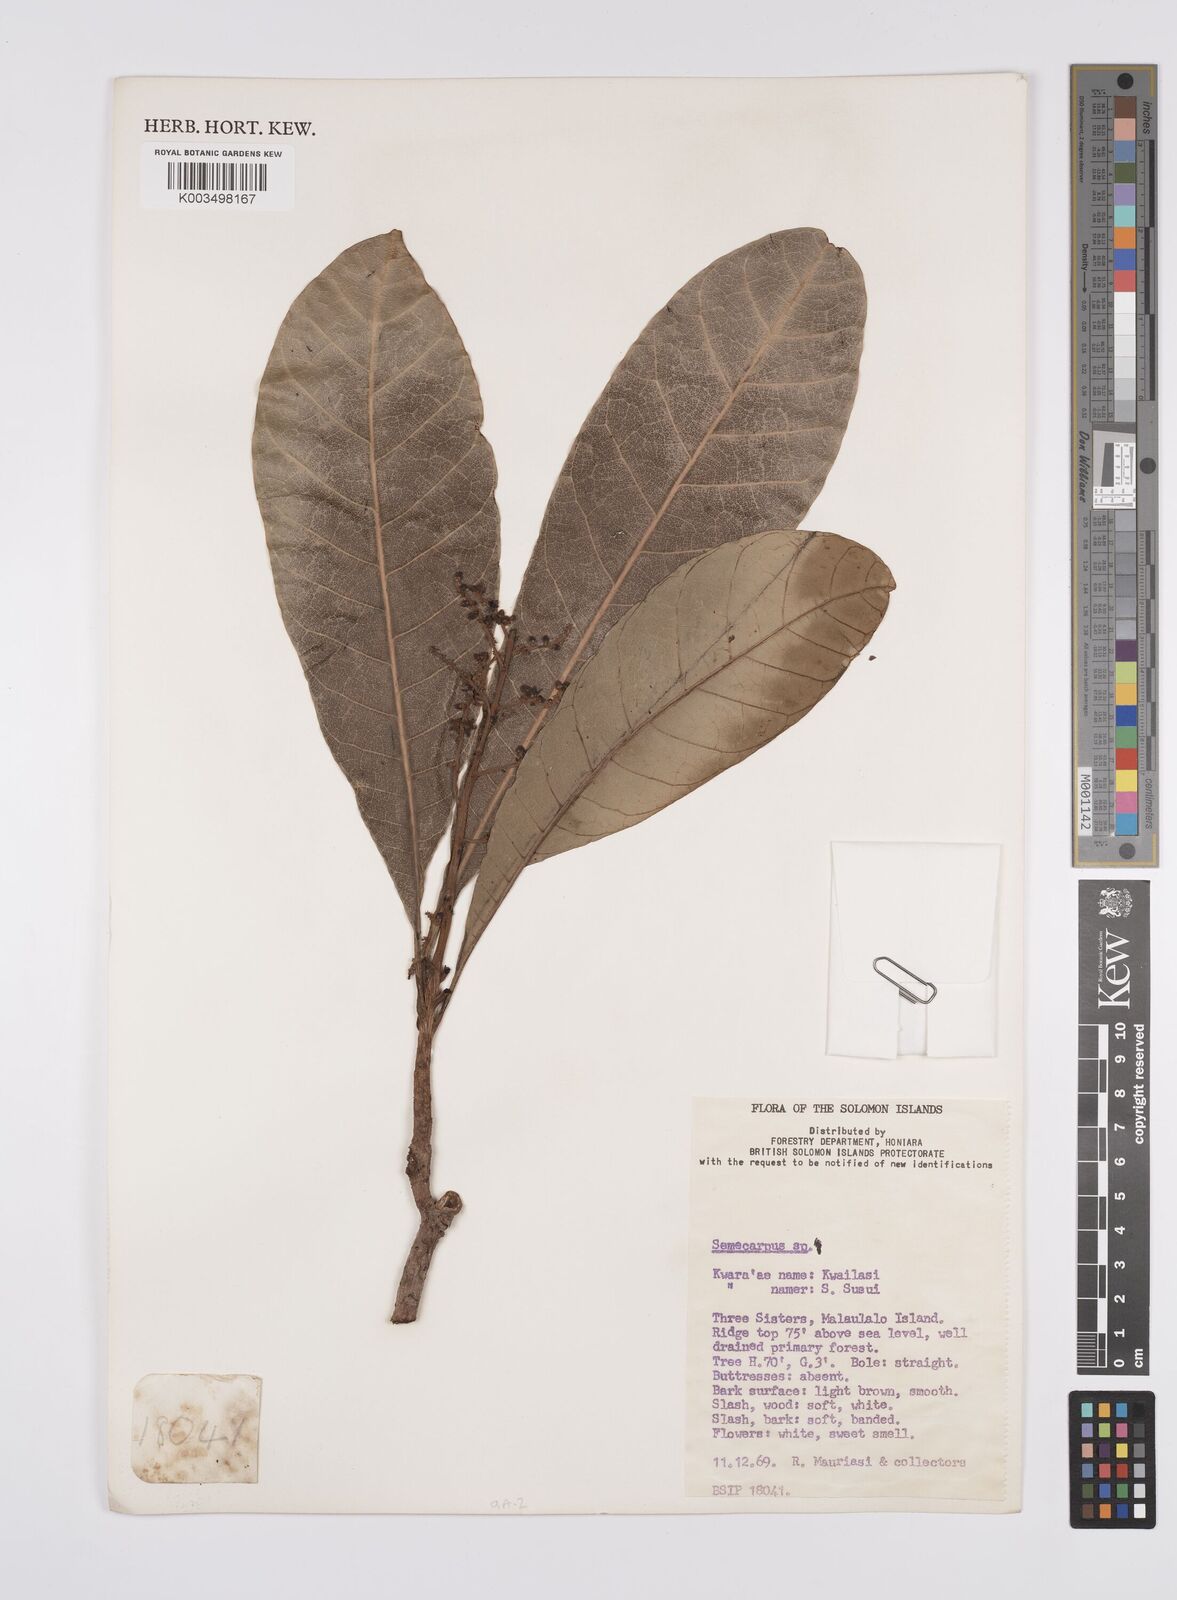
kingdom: Plantae
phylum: Tracheophyta
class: Magnoliopsida
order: Sapindales
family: Anacardiaceae
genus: Semecarpus
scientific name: Semecarpus
